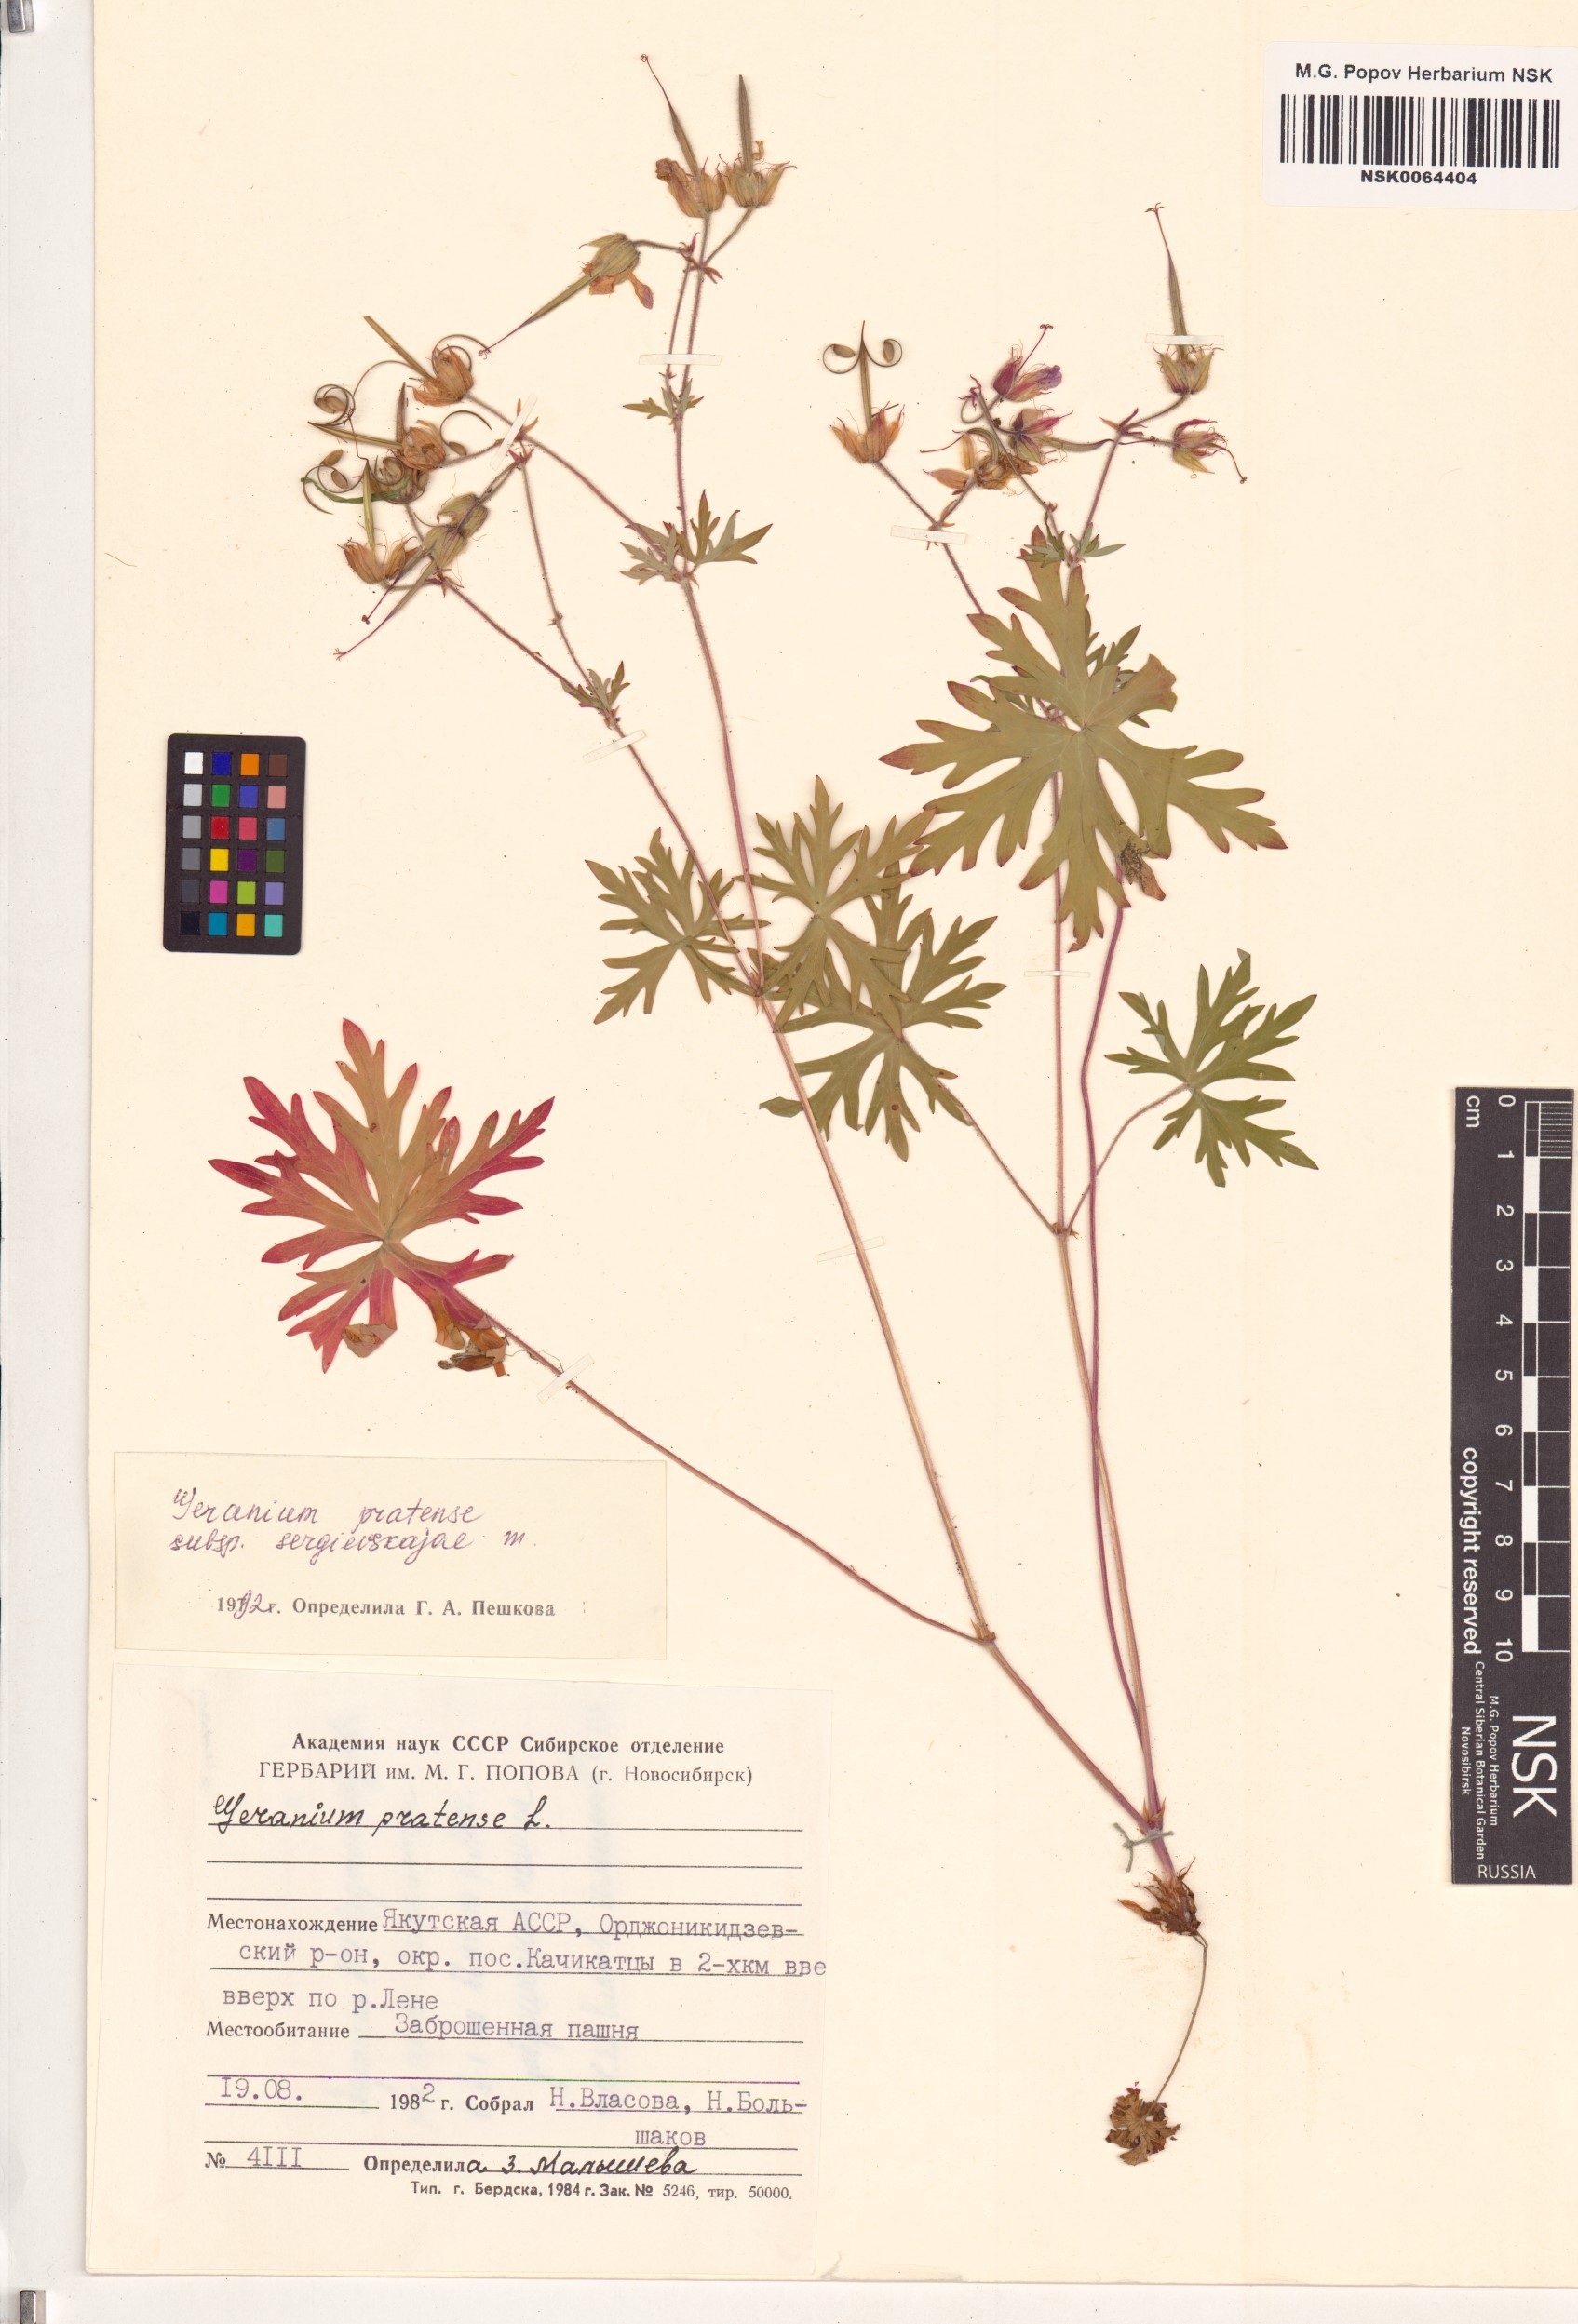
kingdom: Plantae
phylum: Tracheophyta
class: Magnoliopsida
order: Geraniales
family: Geraniaceae
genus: Geranium
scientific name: Geranium pratense
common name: Meadow crane's-bill
